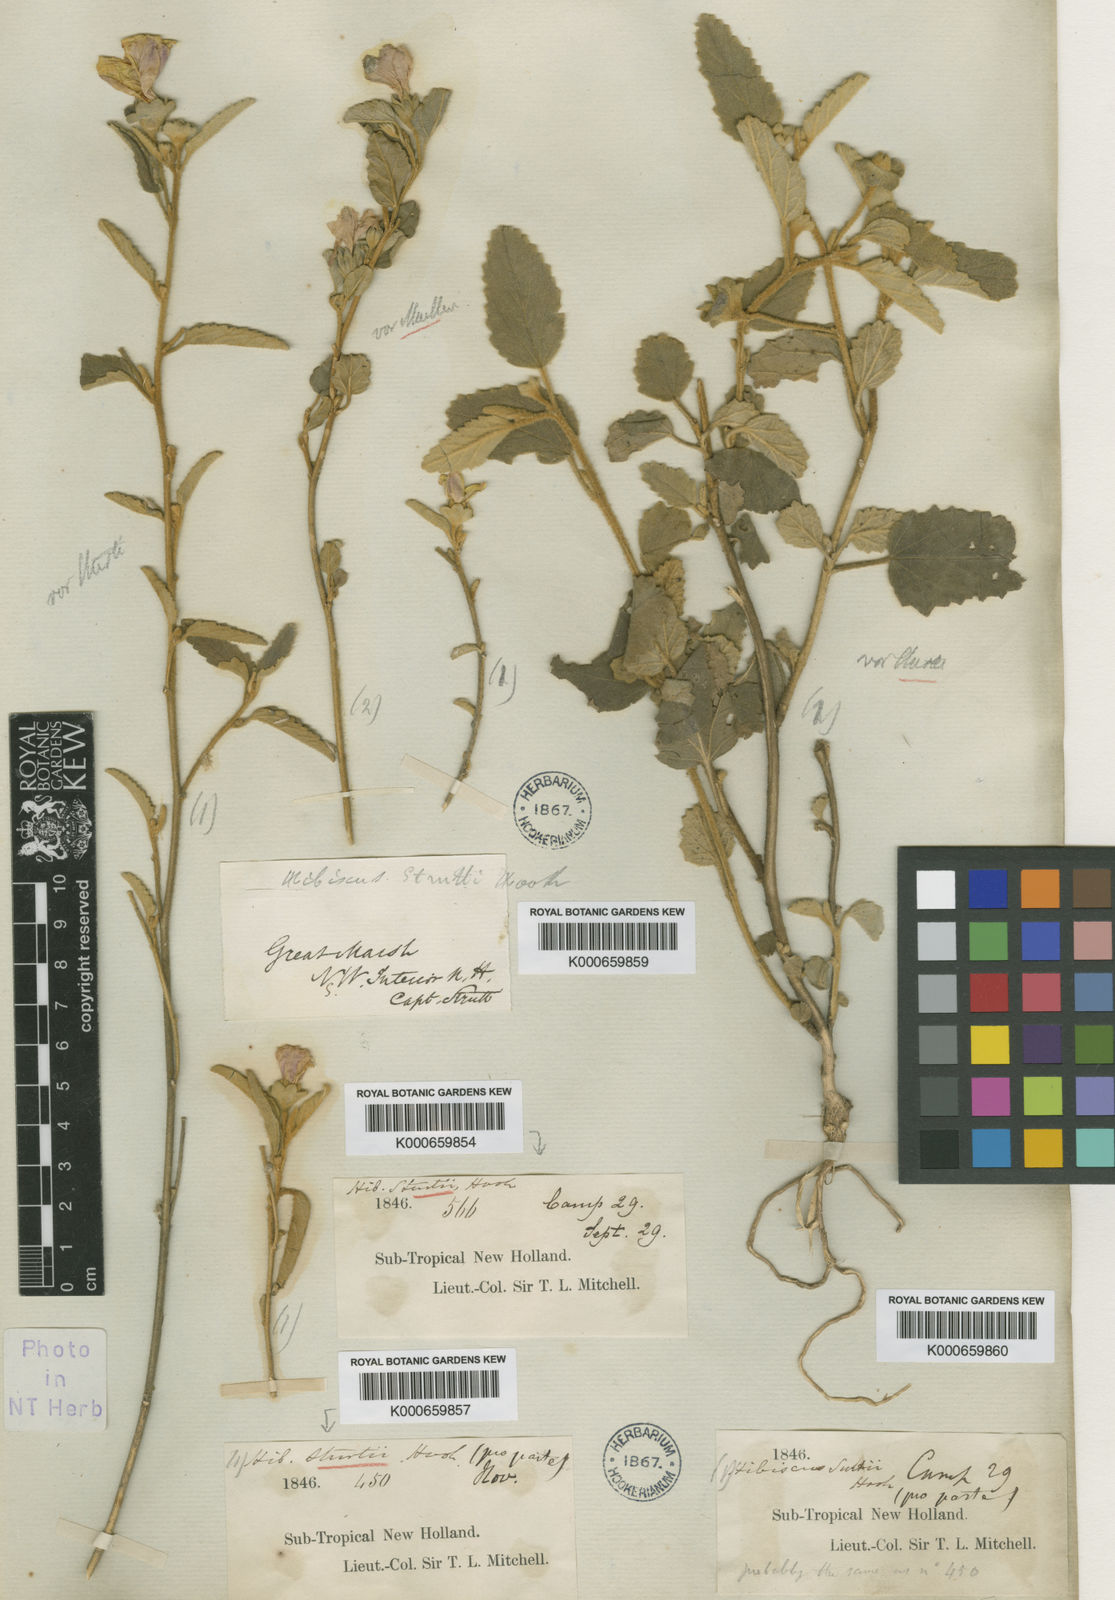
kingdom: Plantae
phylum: Tracheophyta
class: Magnoliopsida
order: Malvales
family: Malvaceae
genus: Hibiscus
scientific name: Hibiscus sturtii
